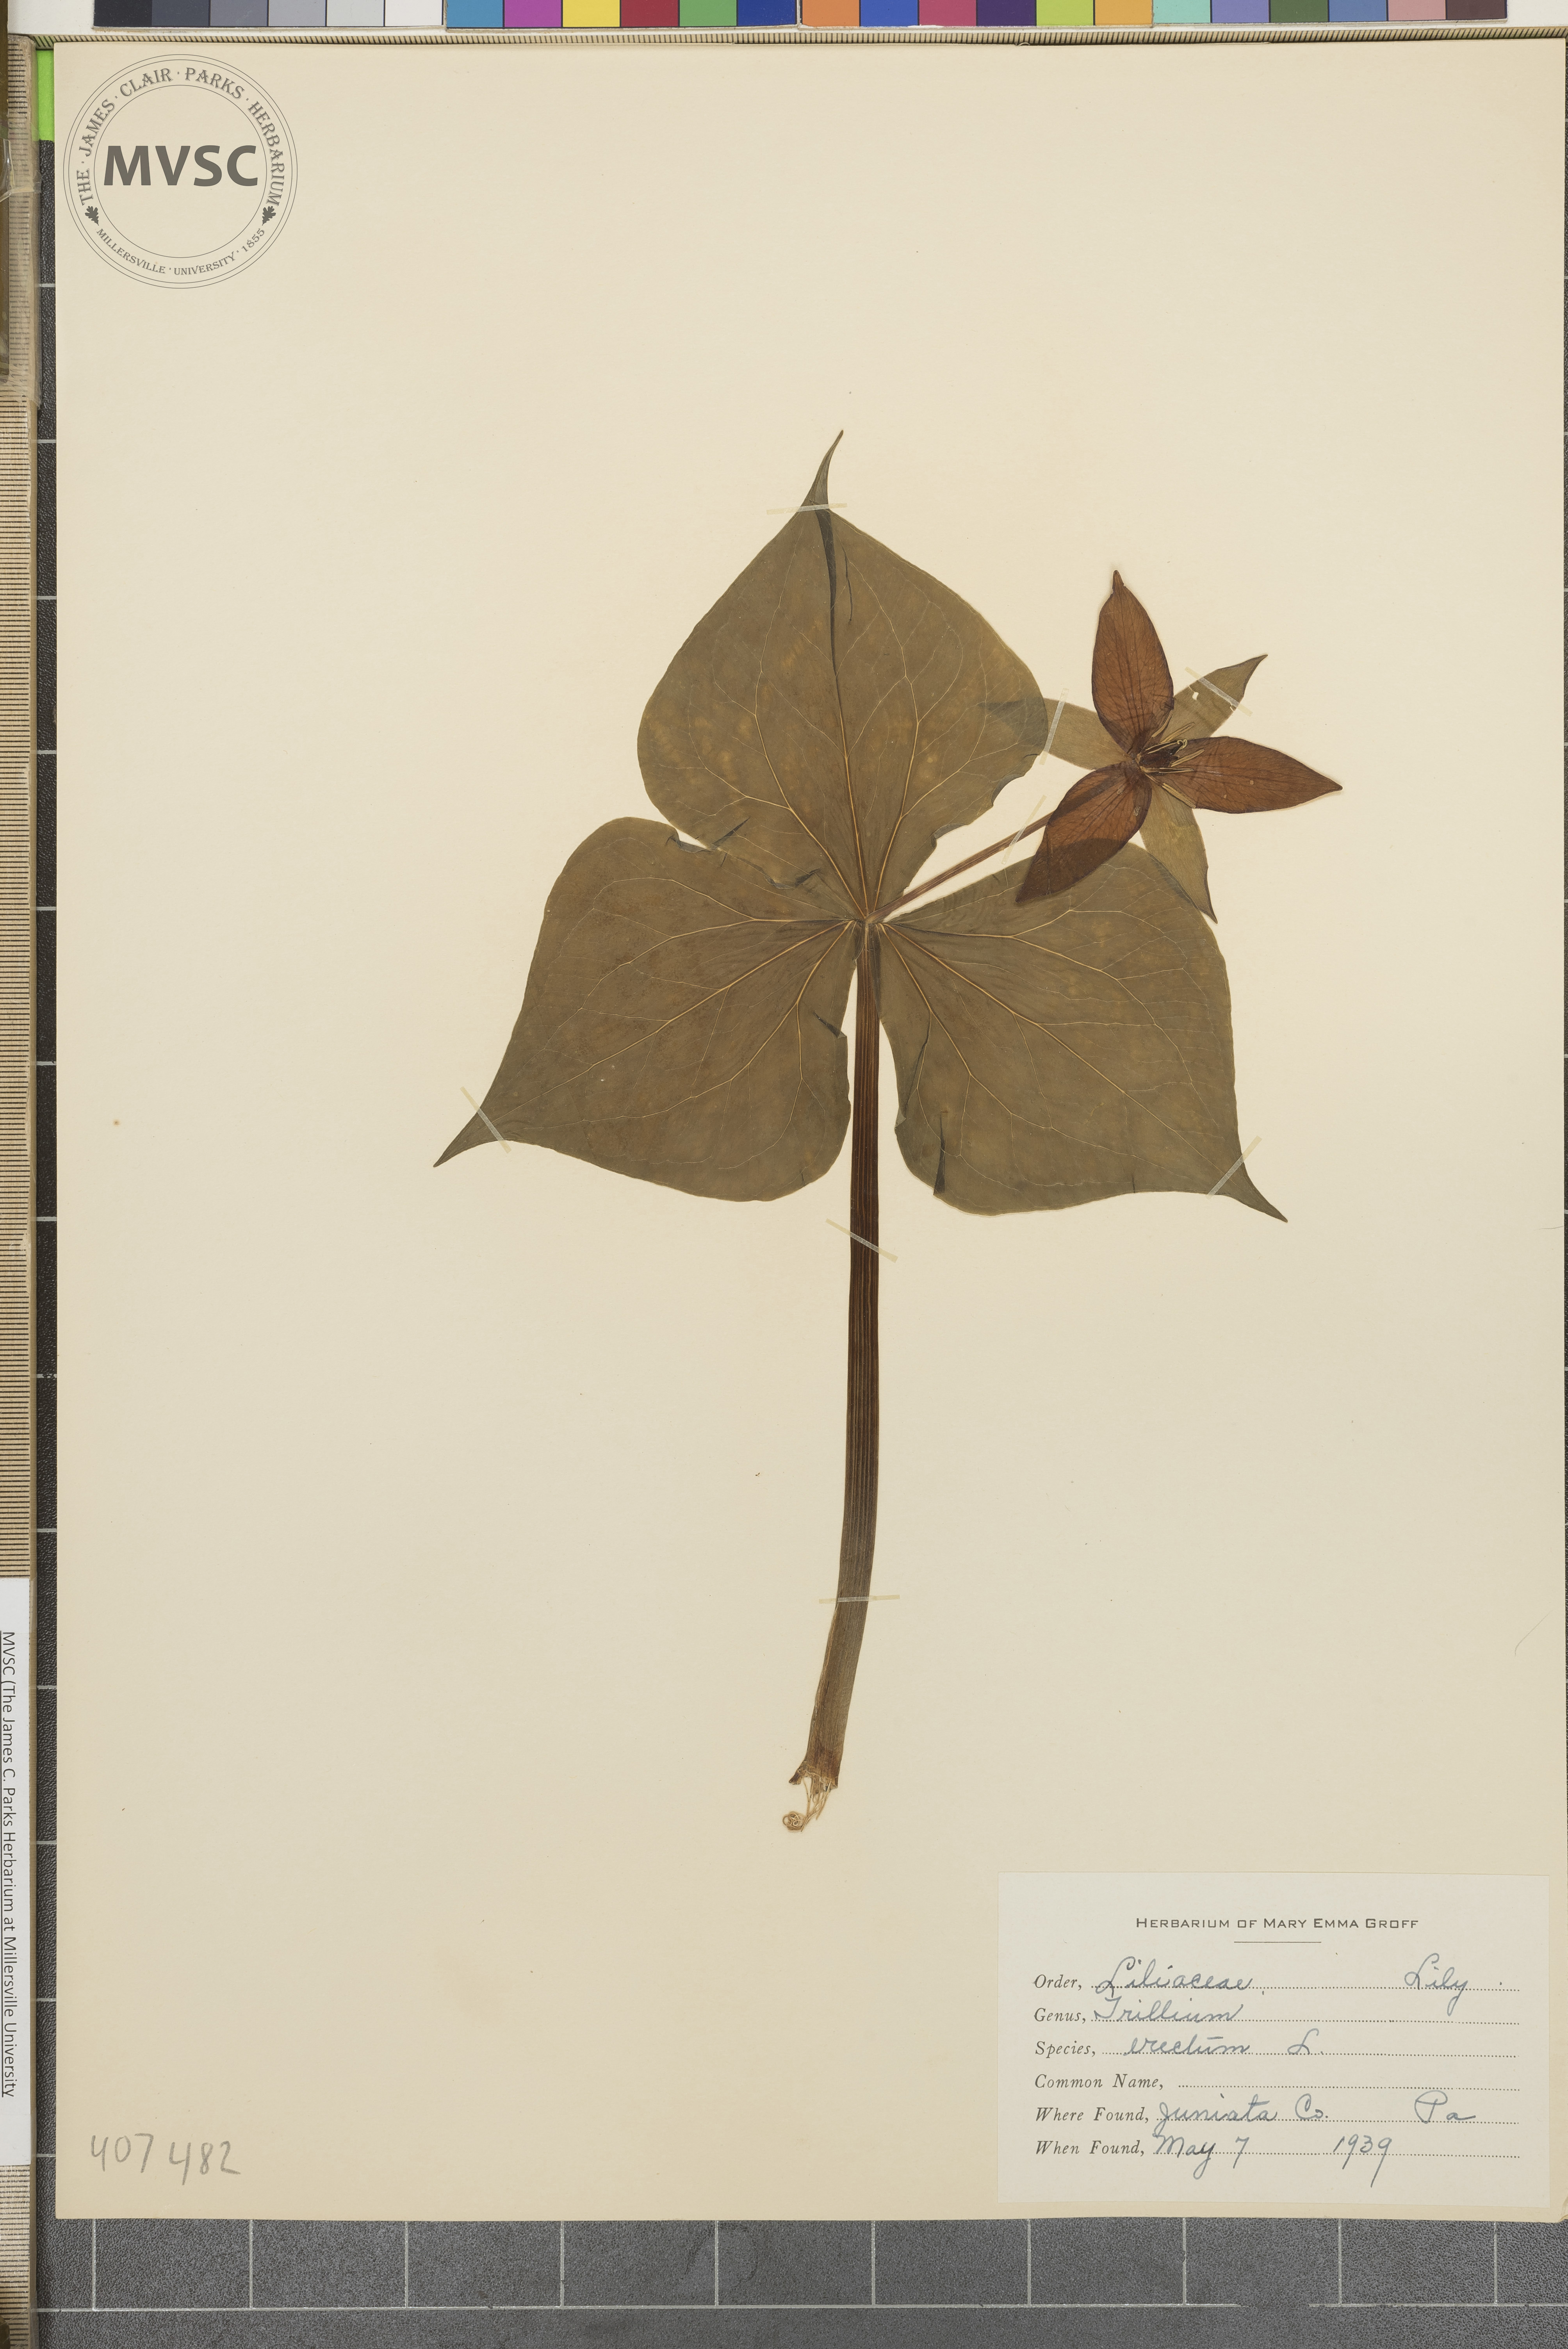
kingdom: Plantae
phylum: Tracheophyta
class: Liliopsida
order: Liliales
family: Melanthiaceae
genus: Trillium
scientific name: Trillium erectum
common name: ill-scented Trillium
